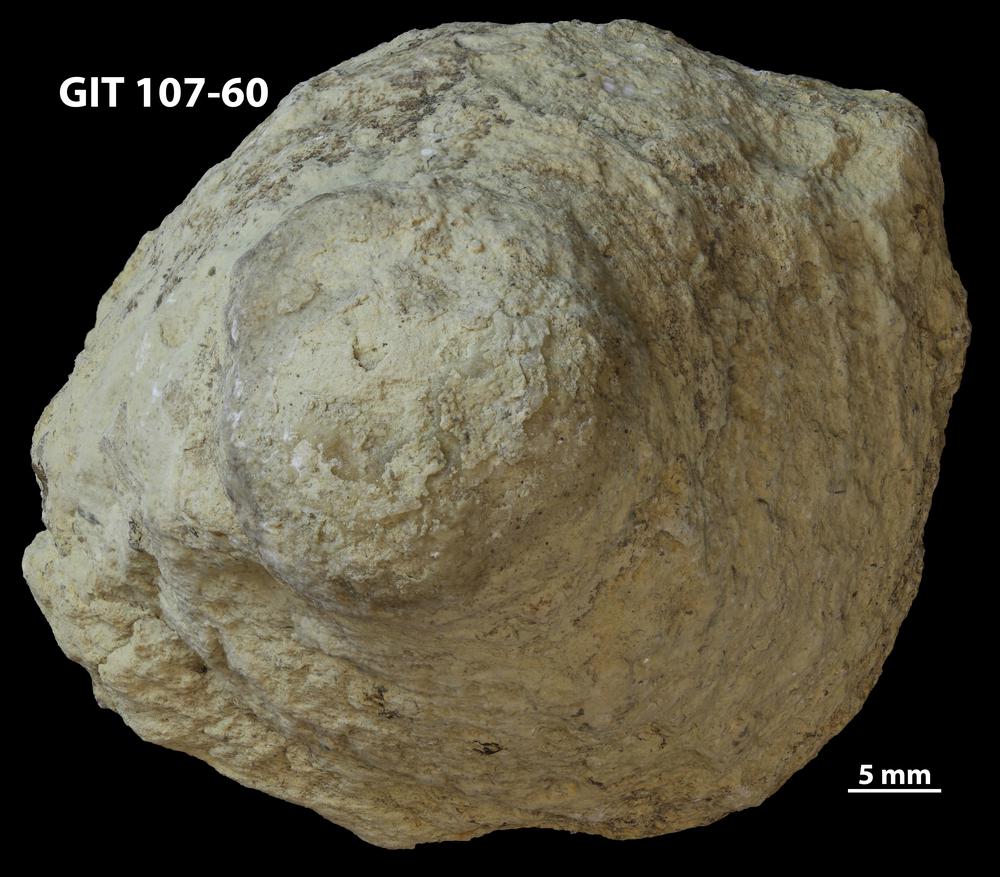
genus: Conichnus
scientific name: Conichnus
